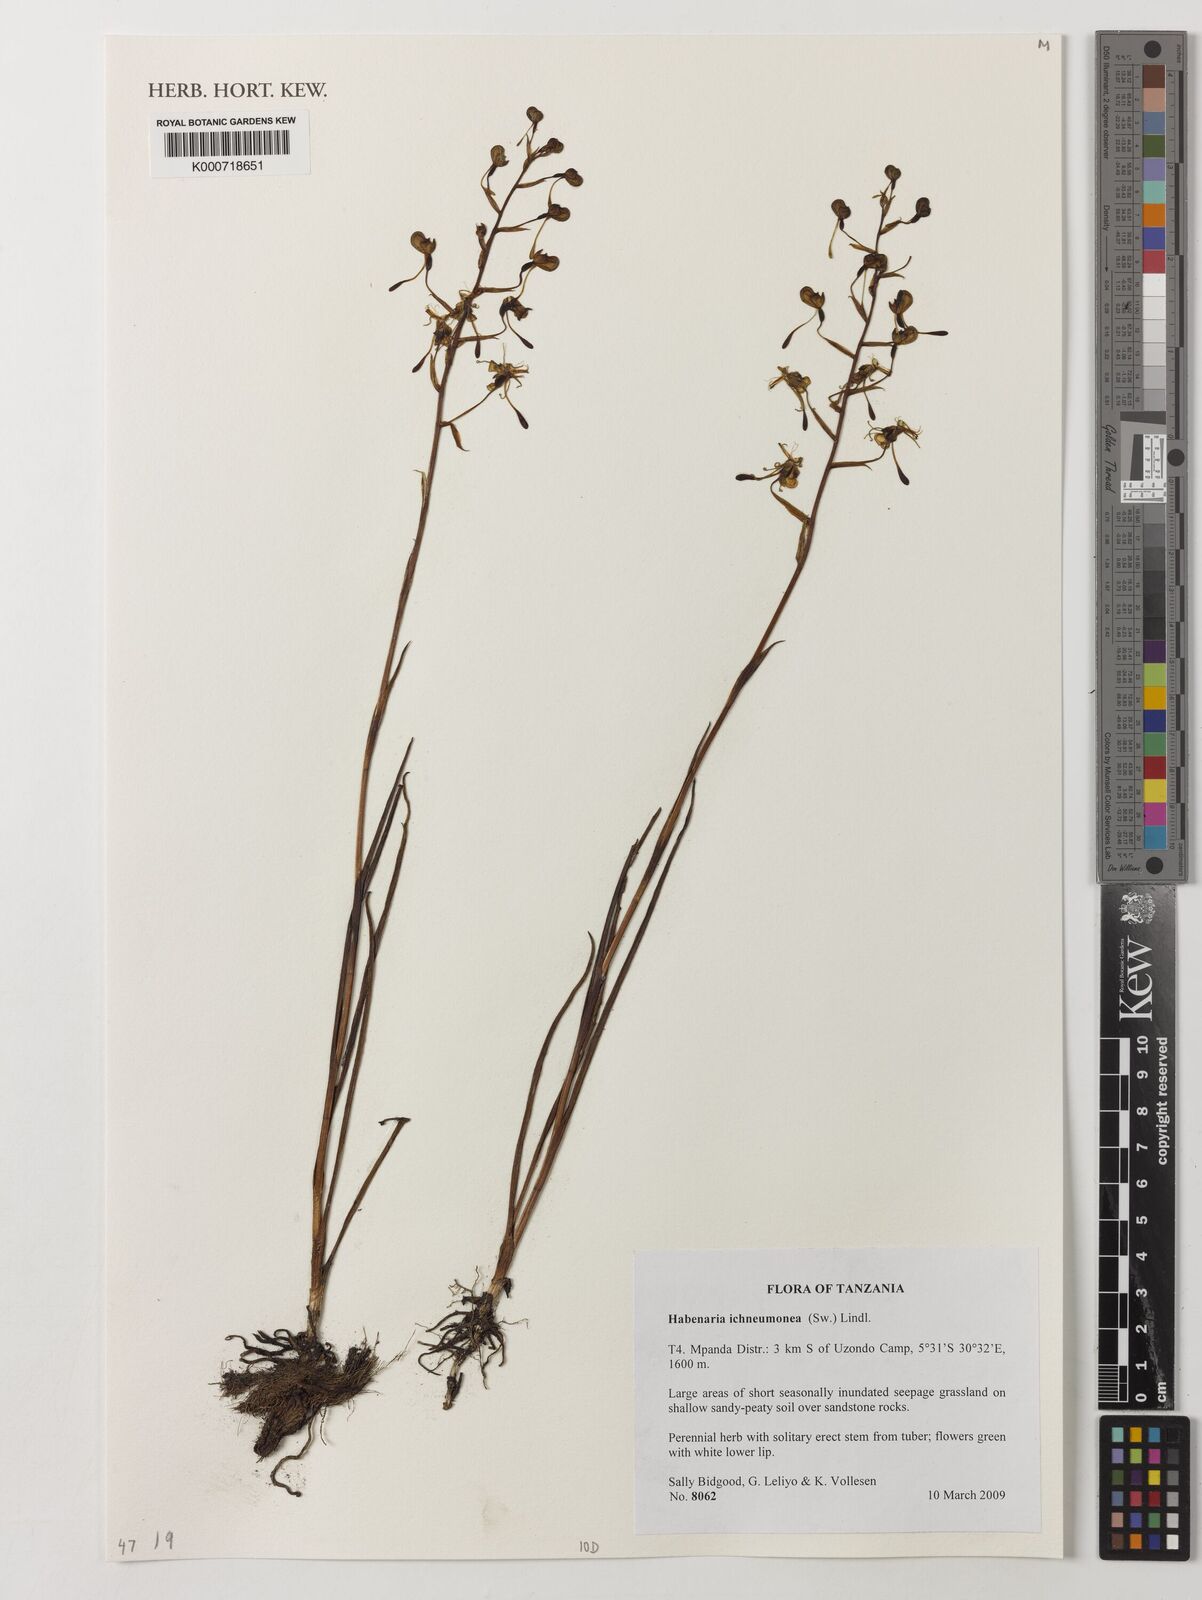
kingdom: Plantae
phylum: Tracheophyta
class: Liliopsida
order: Asparagales
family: Orchidaceae
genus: Habenaria
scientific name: Habenaria ichneumonea
